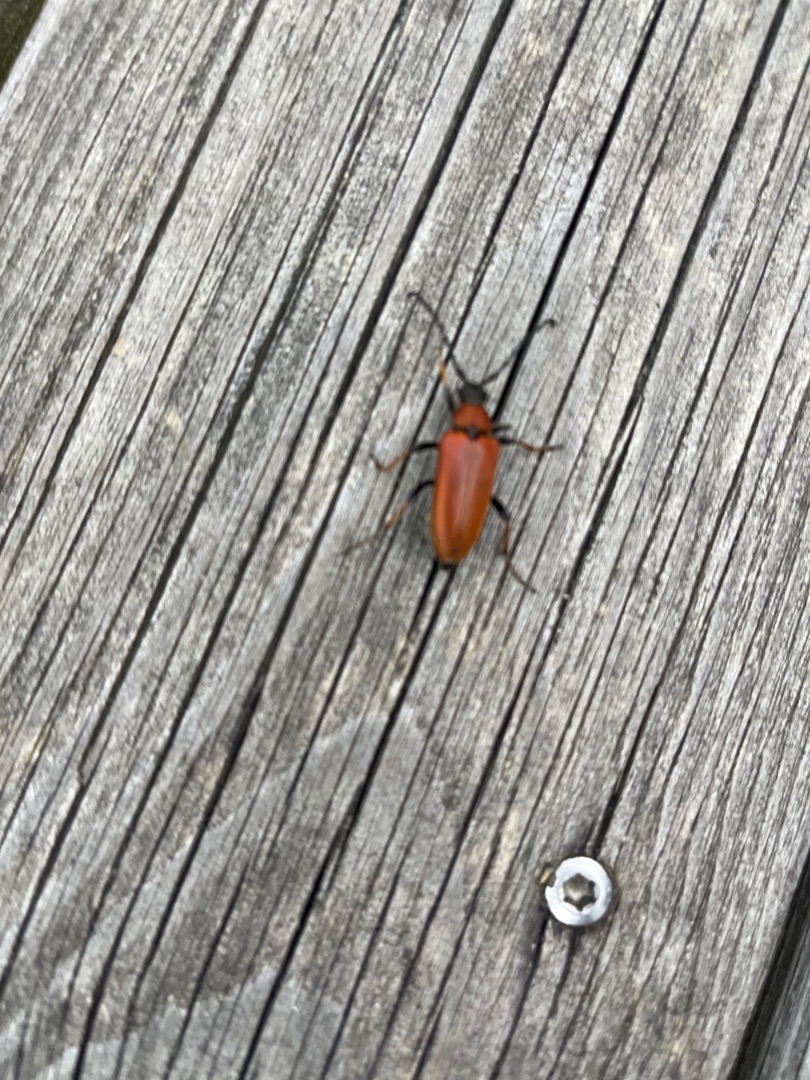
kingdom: Animalia
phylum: Arthropoda
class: Insecta
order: Coleoptera
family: Cerambycidae
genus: Stictoleptura
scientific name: Stictoleptura rubra
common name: Rød blomsterbuk
